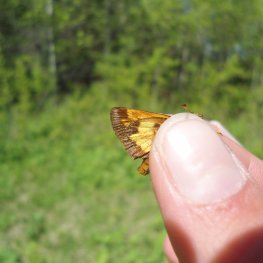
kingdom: Animalia
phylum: Arthropoda
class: Insecta
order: Lepidoptera
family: Hesperiidae
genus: Lon
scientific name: Lon hobomok
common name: Hobomok Skipper
